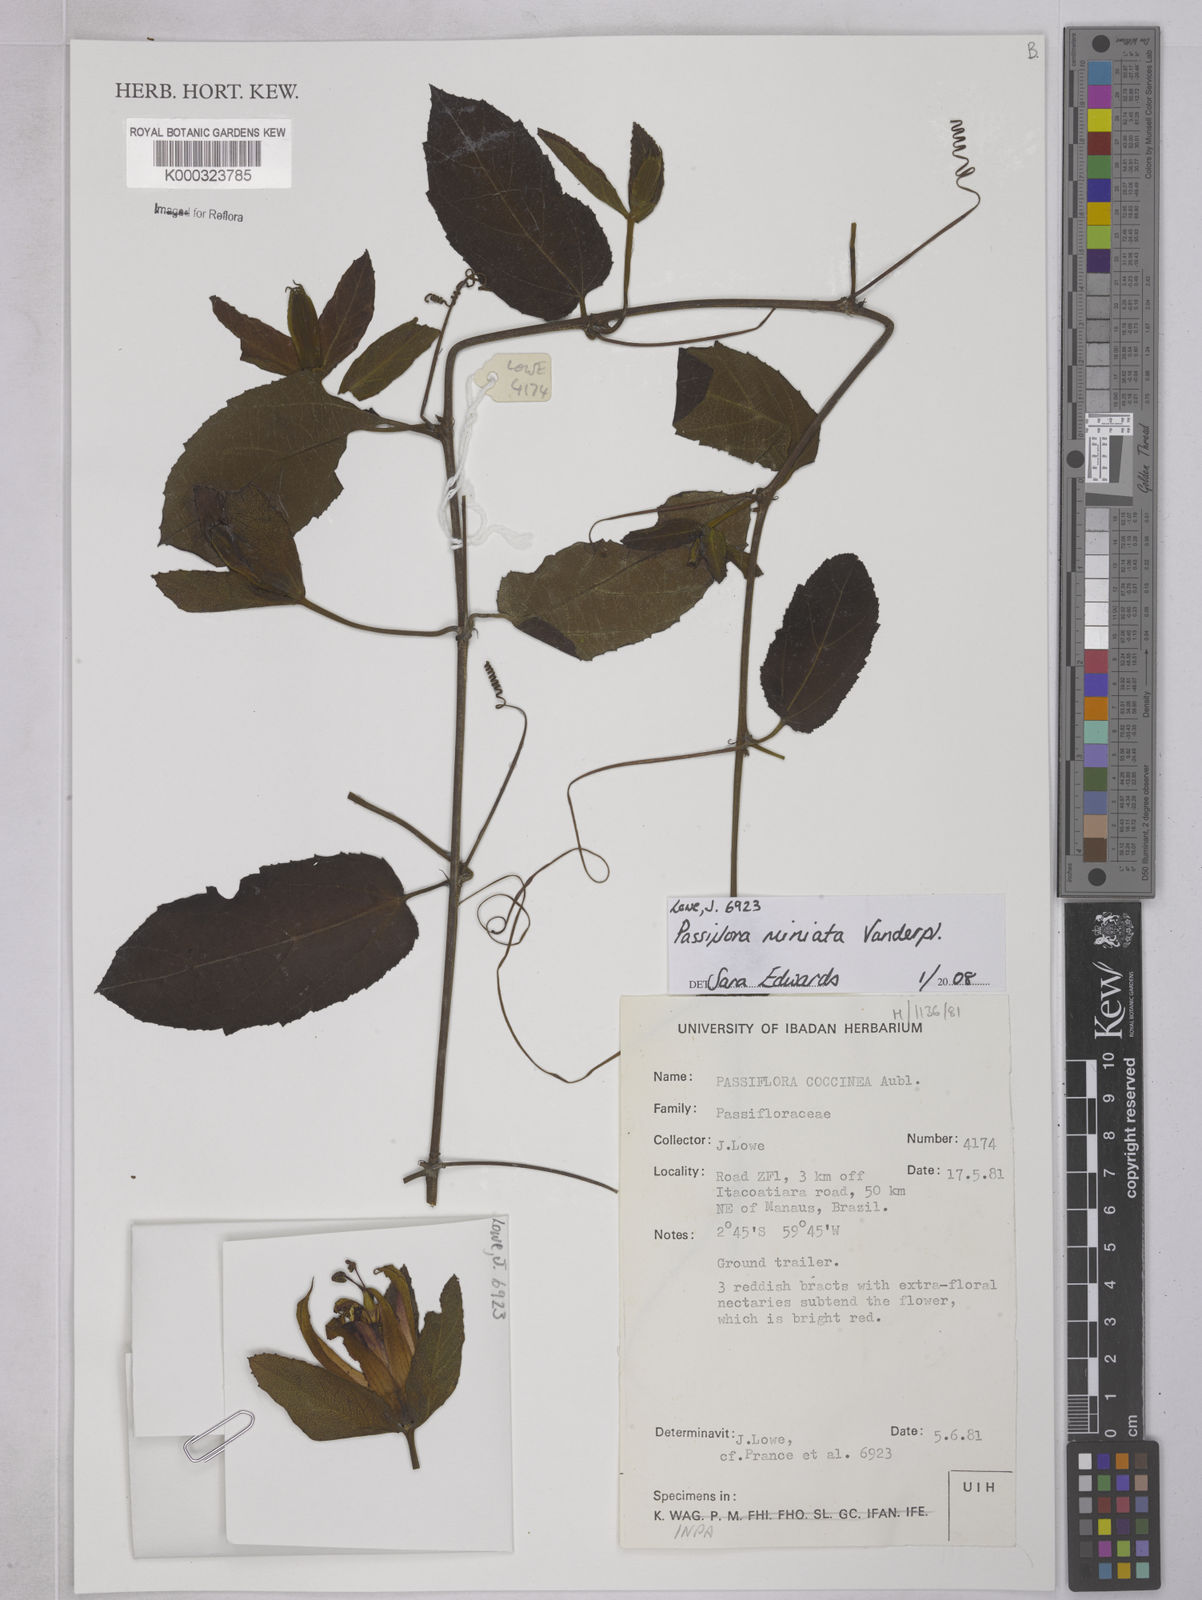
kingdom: Plantae
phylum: Tracheophyta
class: Magnoliopsida
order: Malpighiales
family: Passifloraceae
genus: Passiflora
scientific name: Passiflora miniata
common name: Red granadilla
